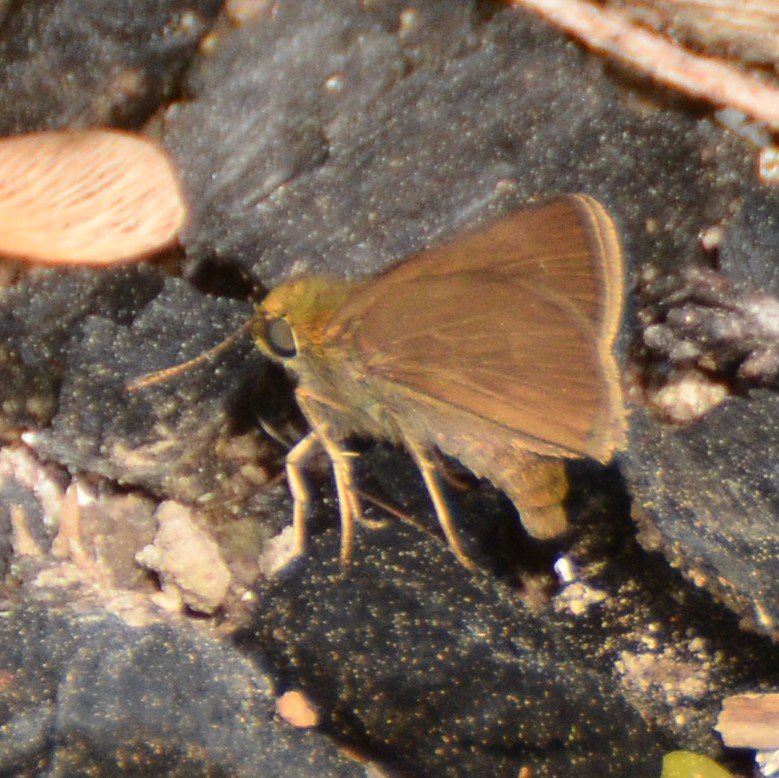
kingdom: Animalia
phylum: Arthropoda
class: Insecta
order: Lepidoptera
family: Hesperiidae
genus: Euphyes
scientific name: Euphyes vestris
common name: Dun Skipper
